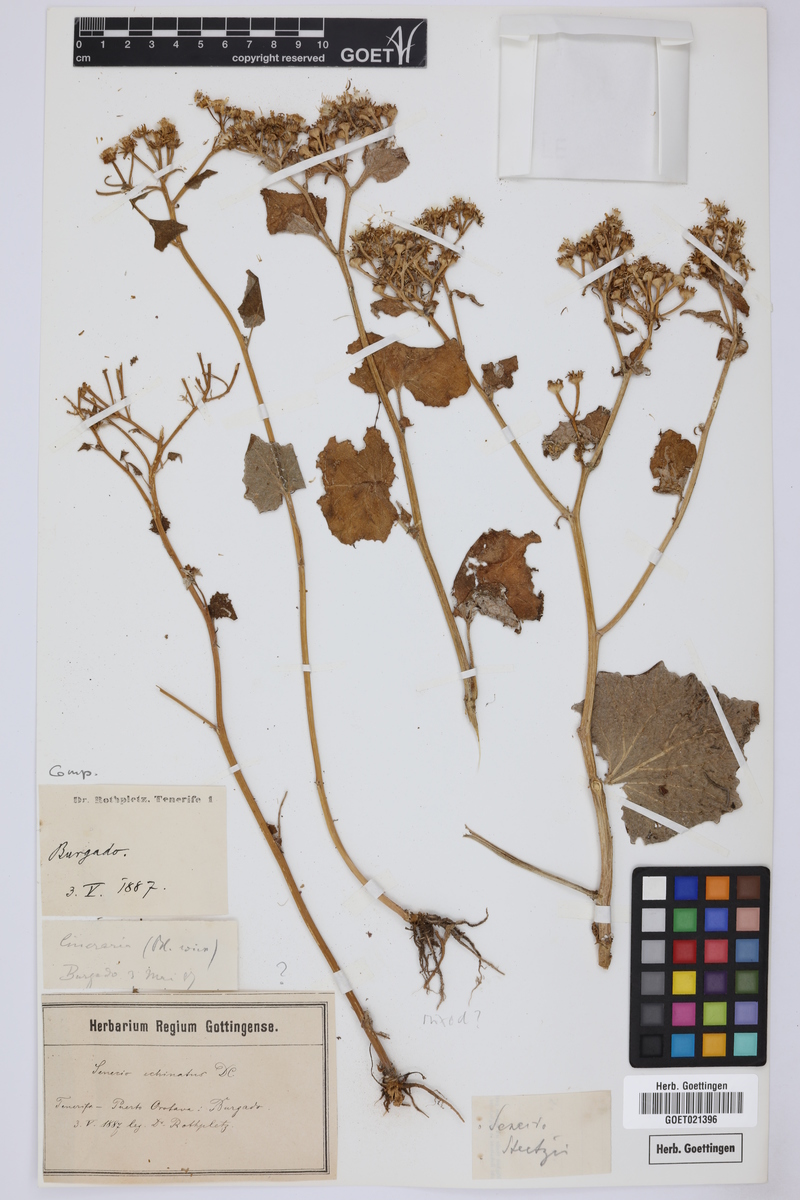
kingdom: Plantae
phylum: Tracheophyta
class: Magnoliopsida
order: Asterales
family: Asteraceae
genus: Pericallis
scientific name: Pericallis echinata
